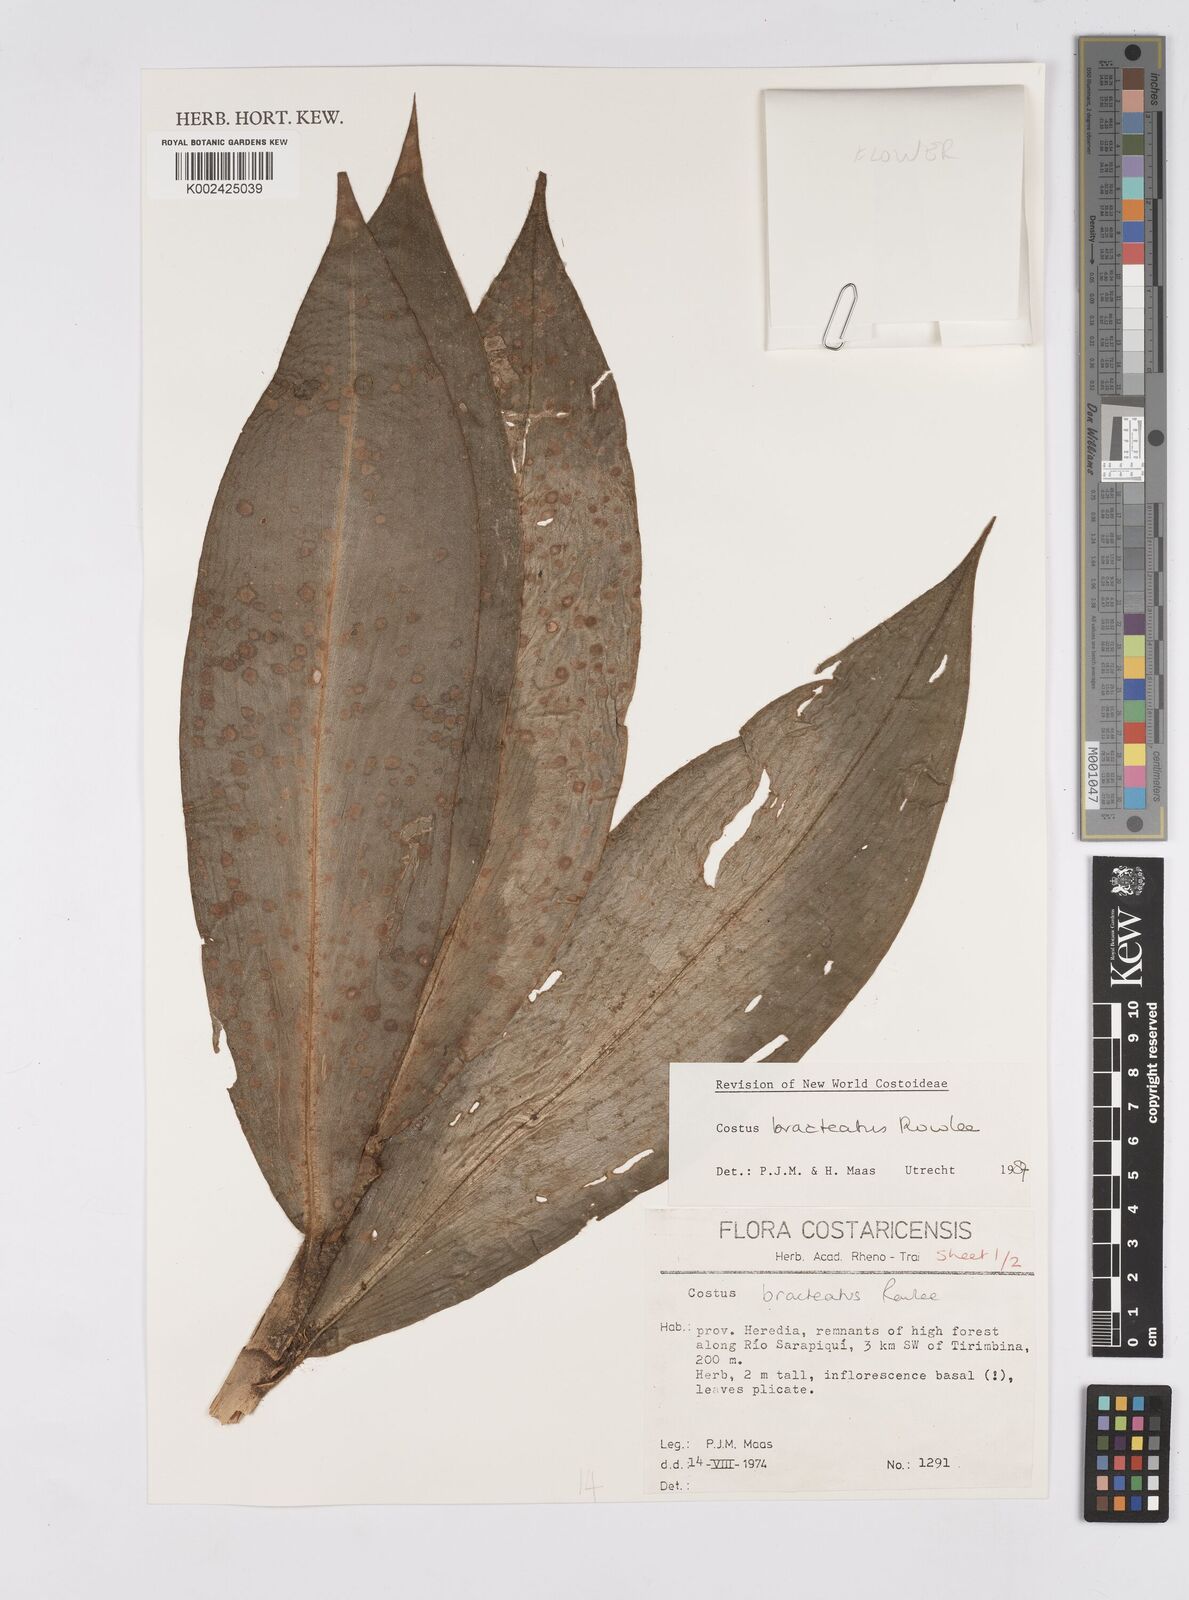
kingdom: Plantae
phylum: Tracheophyta
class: Liliopsida
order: Zingiberales
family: Costaceae
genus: Costus
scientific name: Costus bracteatus
